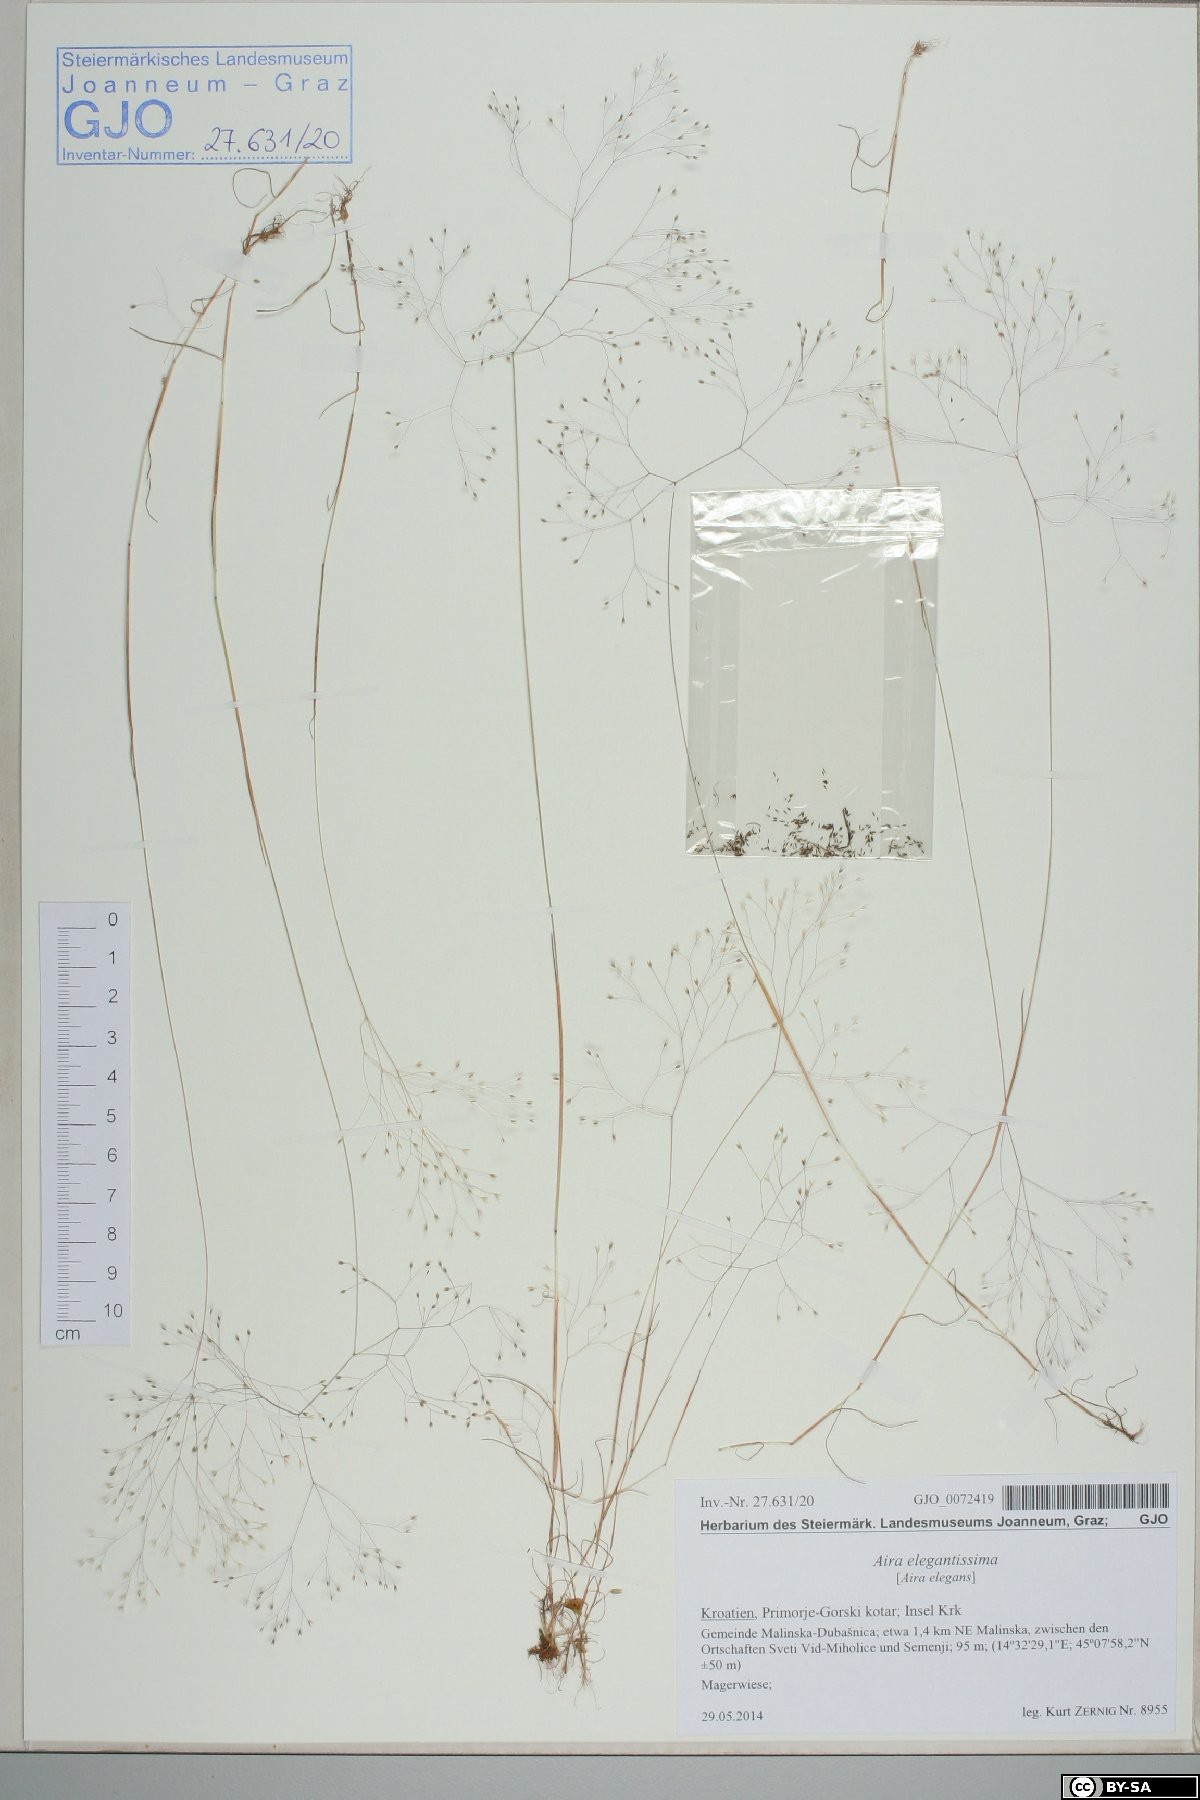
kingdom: Plantae
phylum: Tracheophyta
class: Liliopsida
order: Poales
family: Poaceae
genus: Aira
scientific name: Aira elegans
